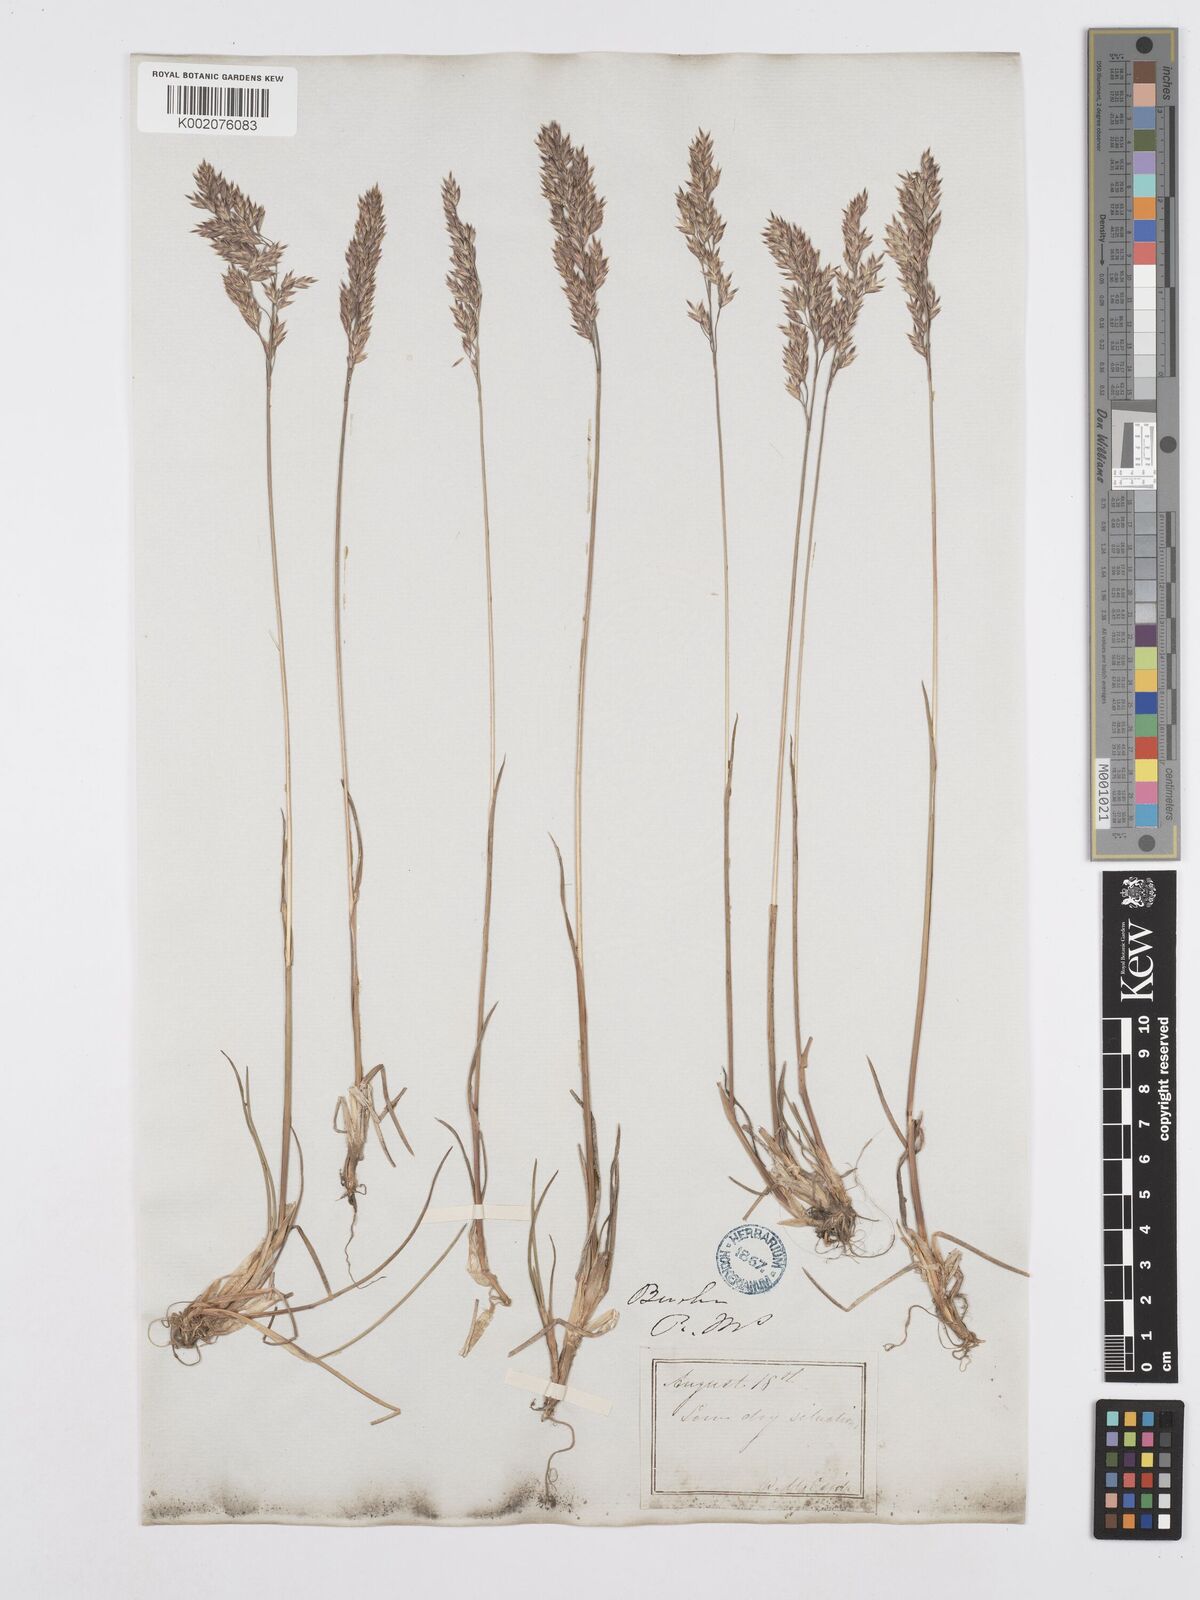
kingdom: Plantae
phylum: Tracheophyta
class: Liliopsida
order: Poales
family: Poaceae
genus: Poa
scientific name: Poa alpina
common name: Alpine bluegrass
